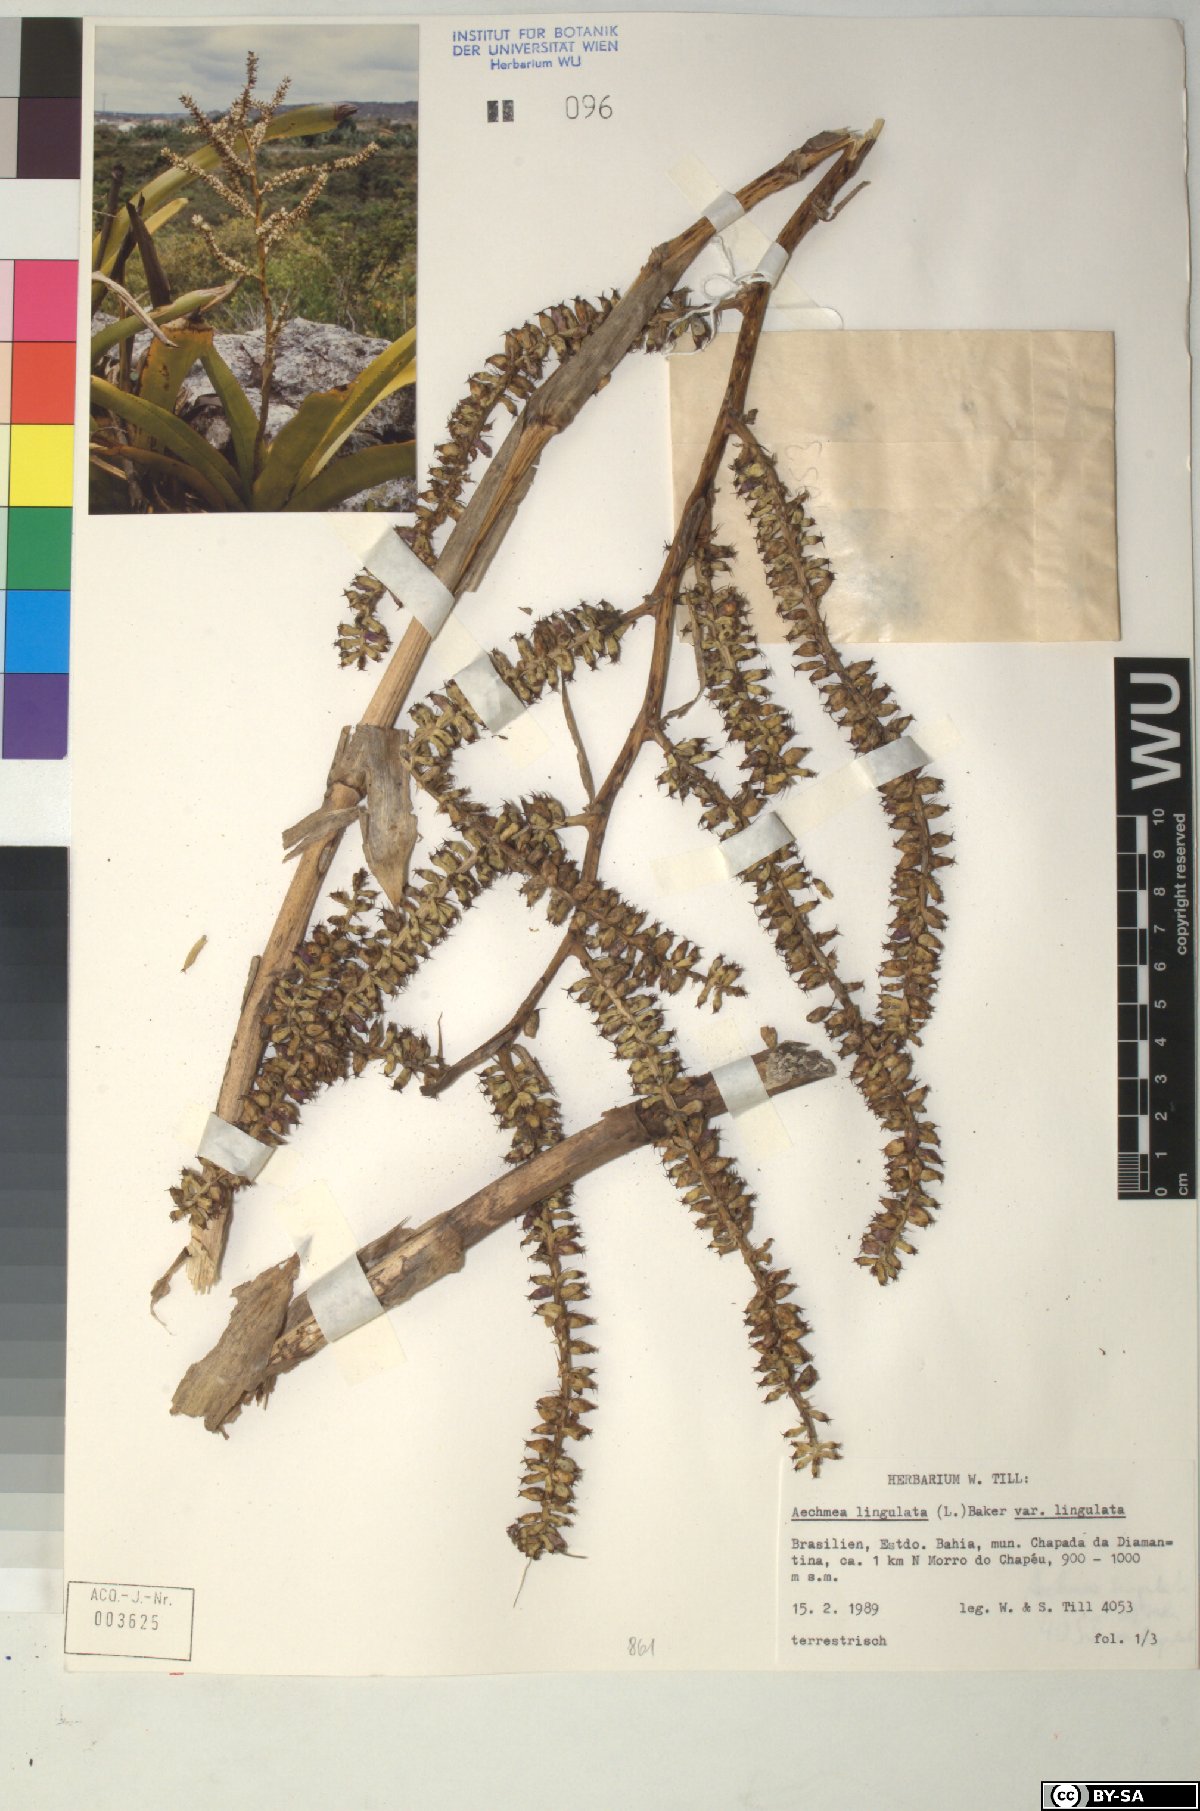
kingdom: Plantae
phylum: Tracheophyta
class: Liliopsida
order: Poales
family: Bromeliaceae
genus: Aechmea
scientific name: Aechmea
